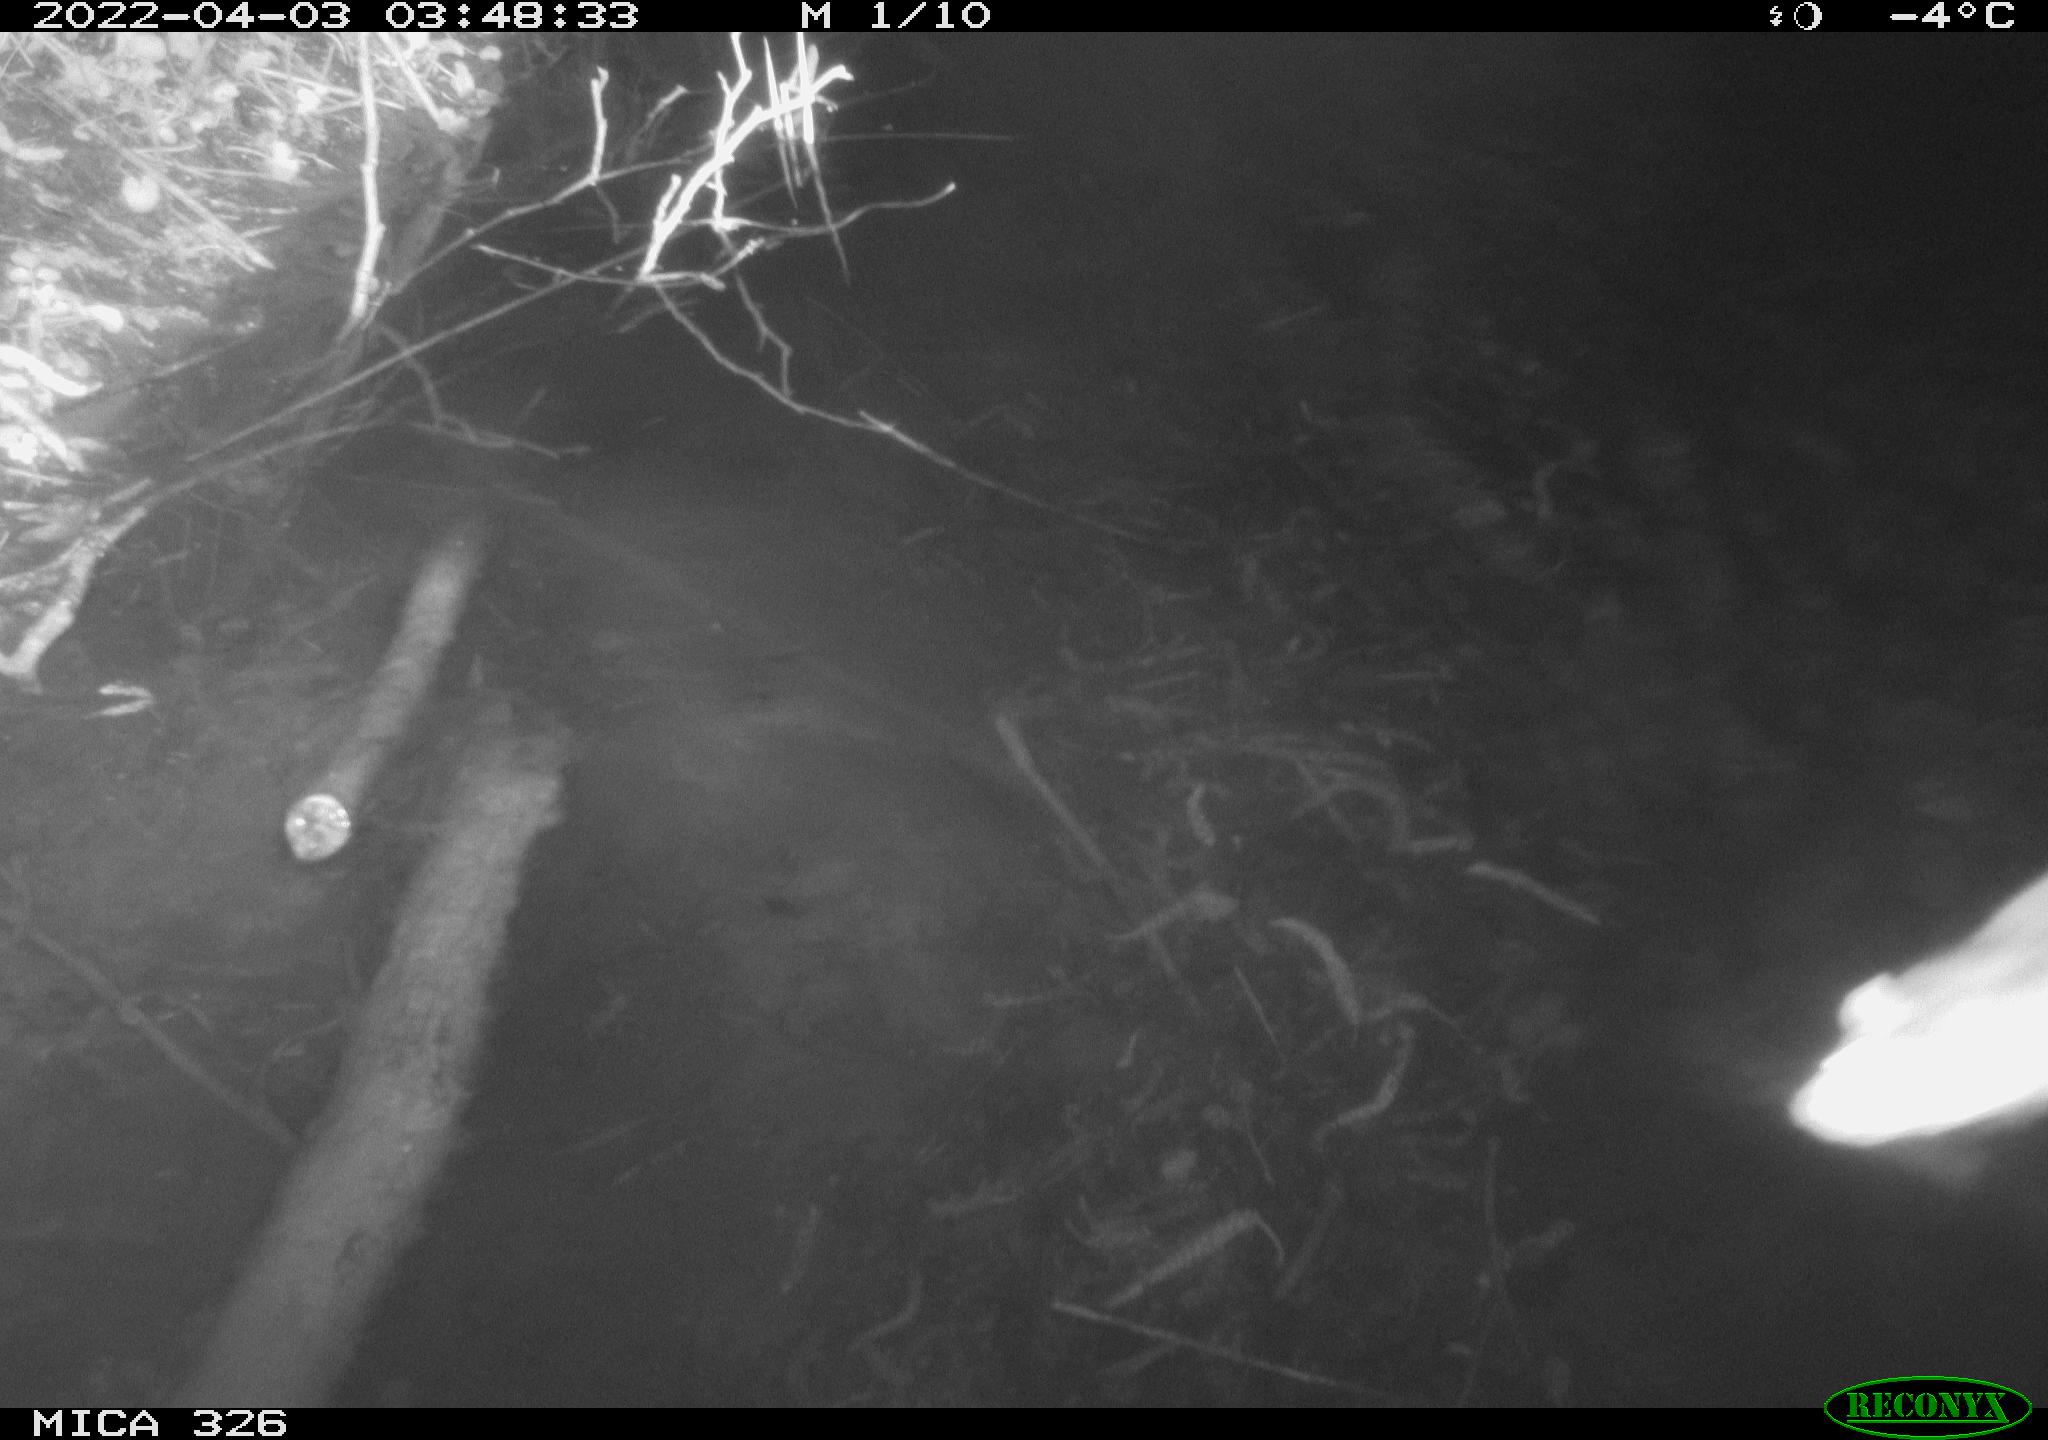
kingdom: Animalia
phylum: Chordata
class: Mammalia
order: Rodentia
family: Muridae
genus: Rattus
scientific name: Rattus norvegicus
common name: Brown rat
